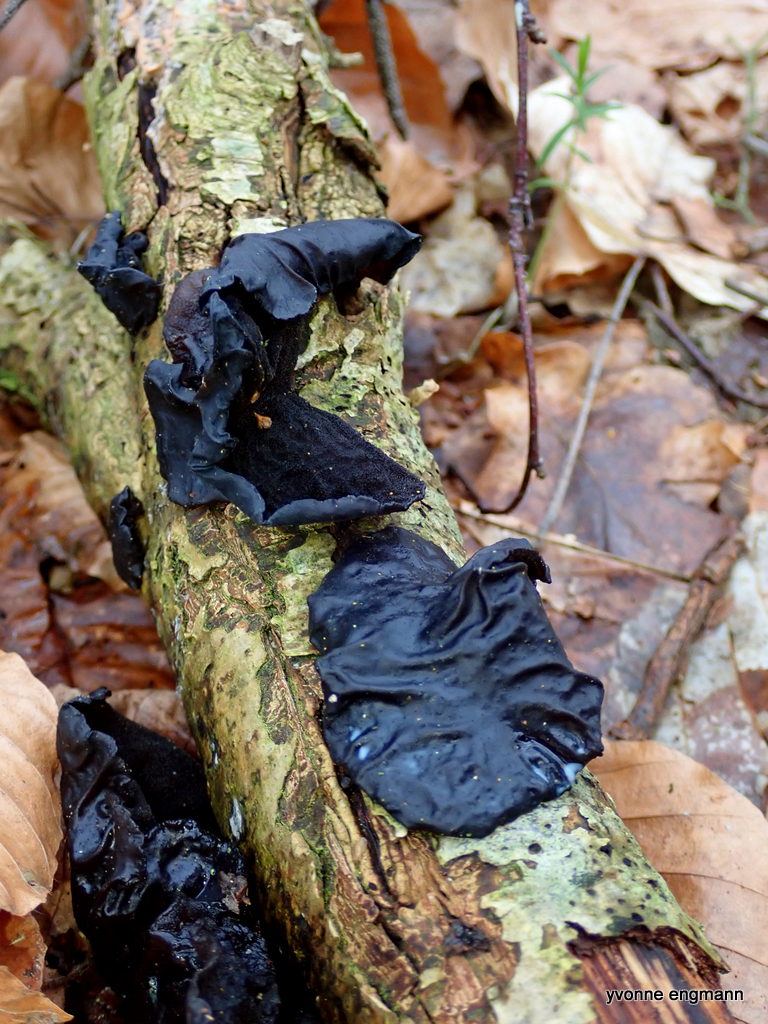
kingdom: Fungi
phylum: Basidiomycota
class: Agaricomycetes
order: Auriculariales
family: Auriculariaceae
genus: Exidia
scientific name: Exidia glandulosa
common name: ege-bævretop
